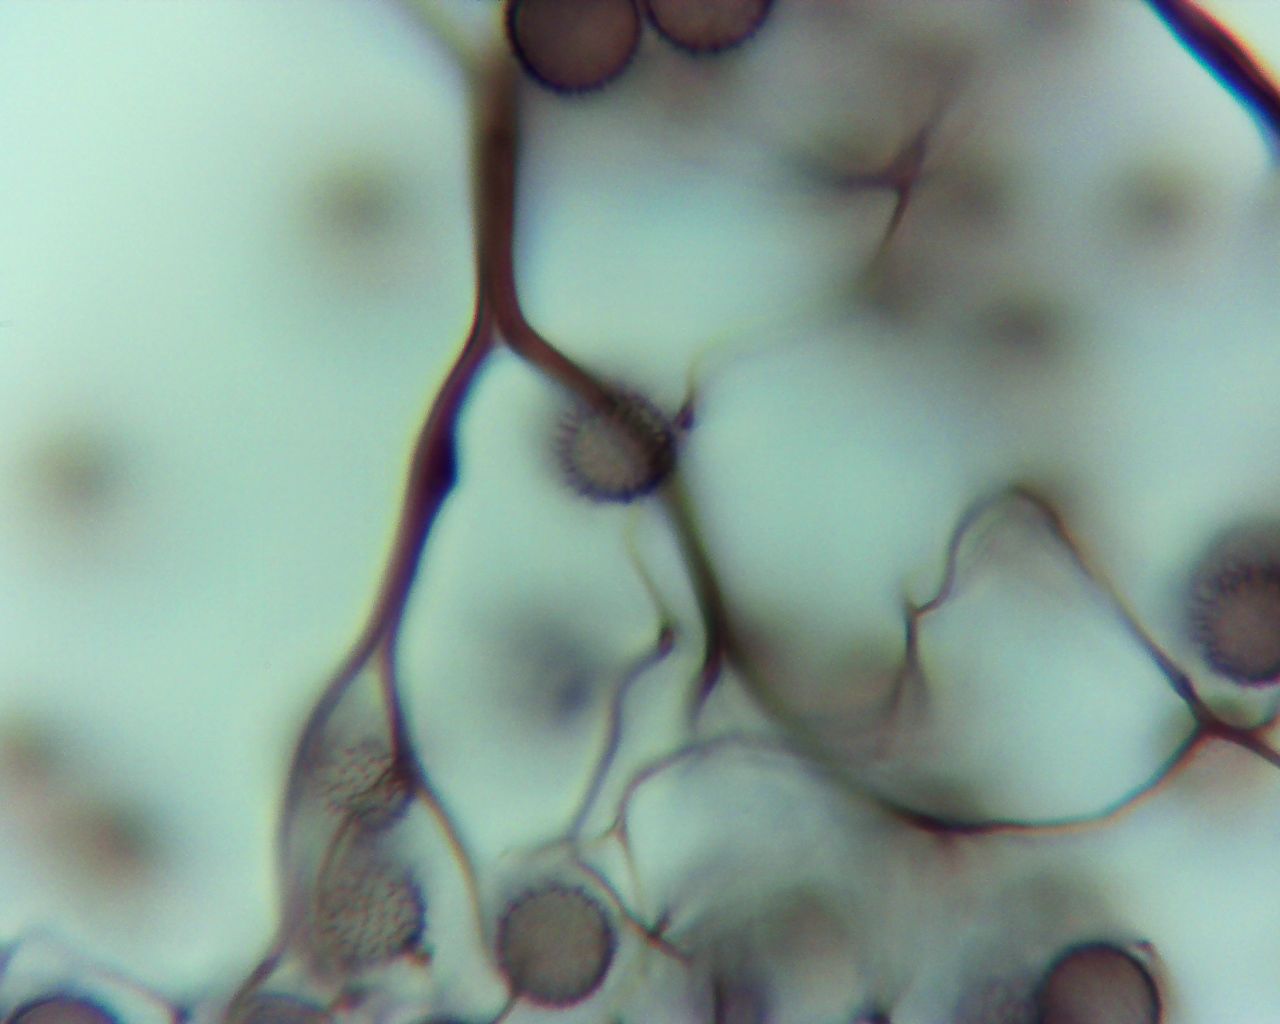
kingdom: Protozoa
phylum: Mycetozoa
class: Myxomycetes
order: Stemonitidales
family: Stemonitidaceae
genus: Stemonitis
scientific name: Stemonitis fusca
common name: sodbrun støvkølle
